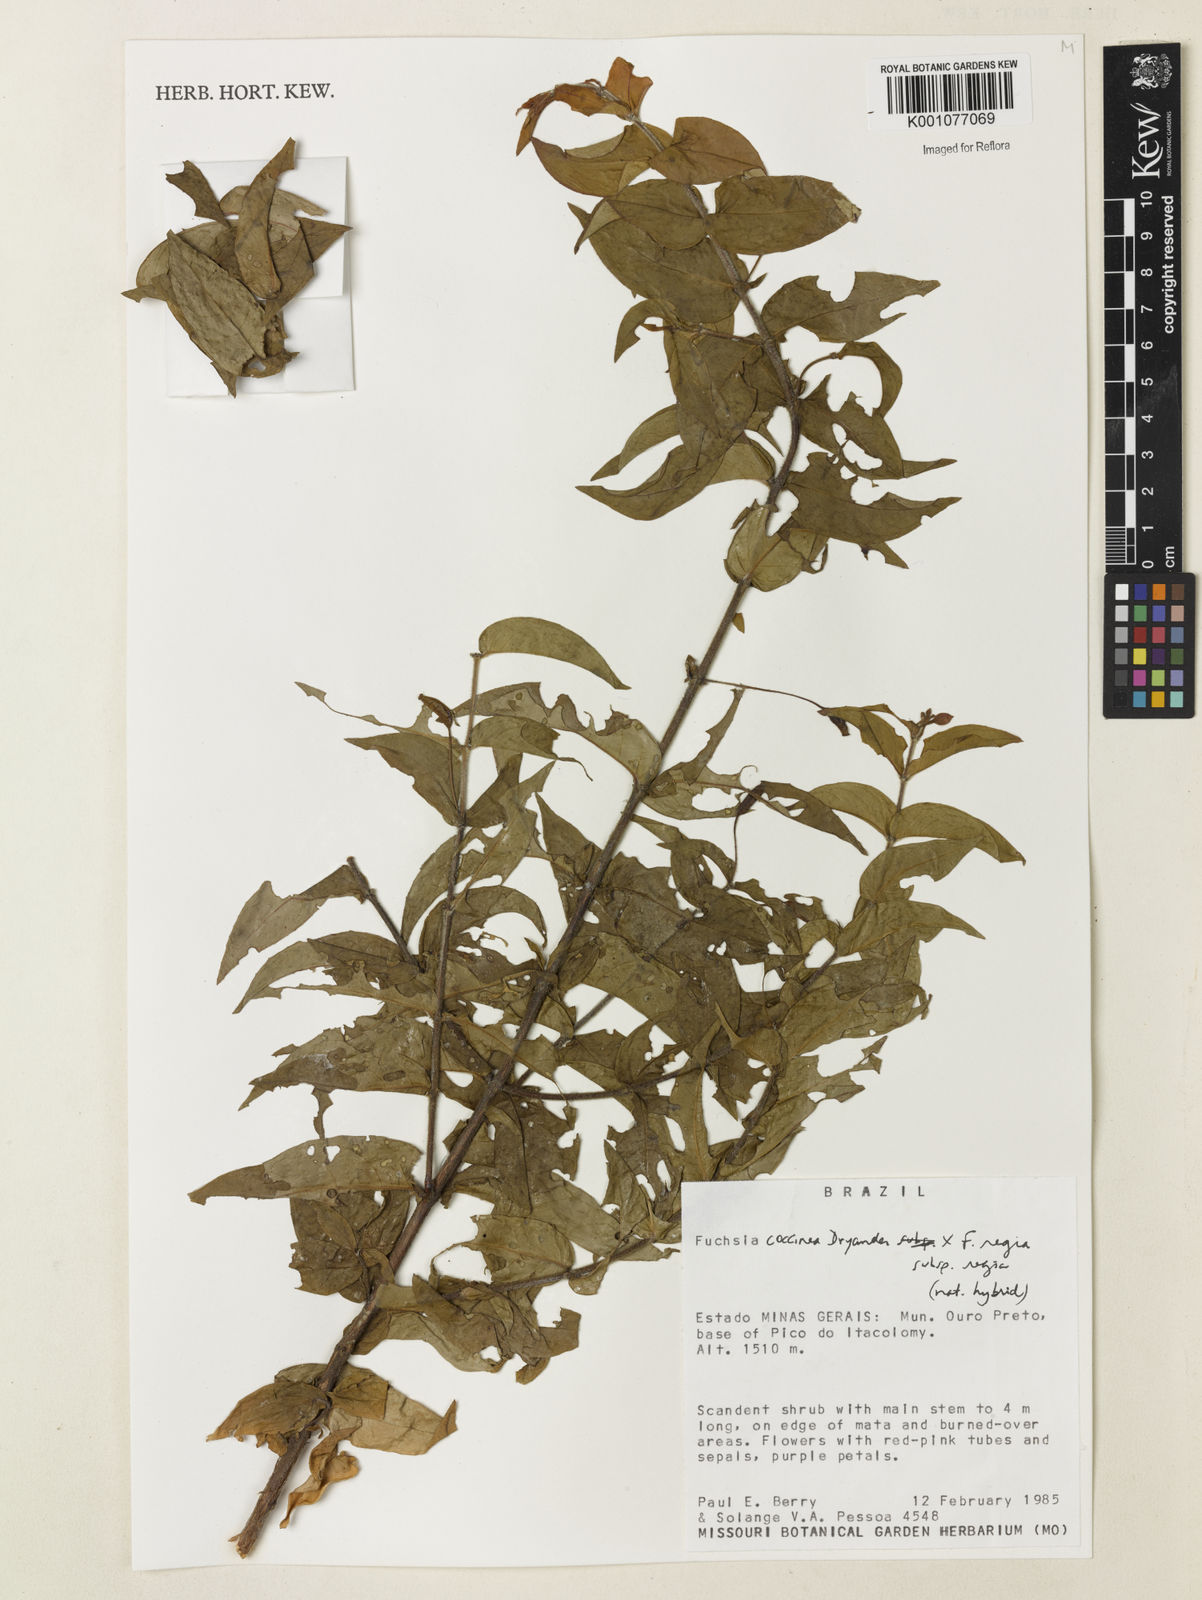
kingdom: Plantae
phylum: Tracheophyta
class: Magnoliopsida
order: Myrtales
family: Onagraceae
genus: Fuchsia
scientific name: Fuchsia
